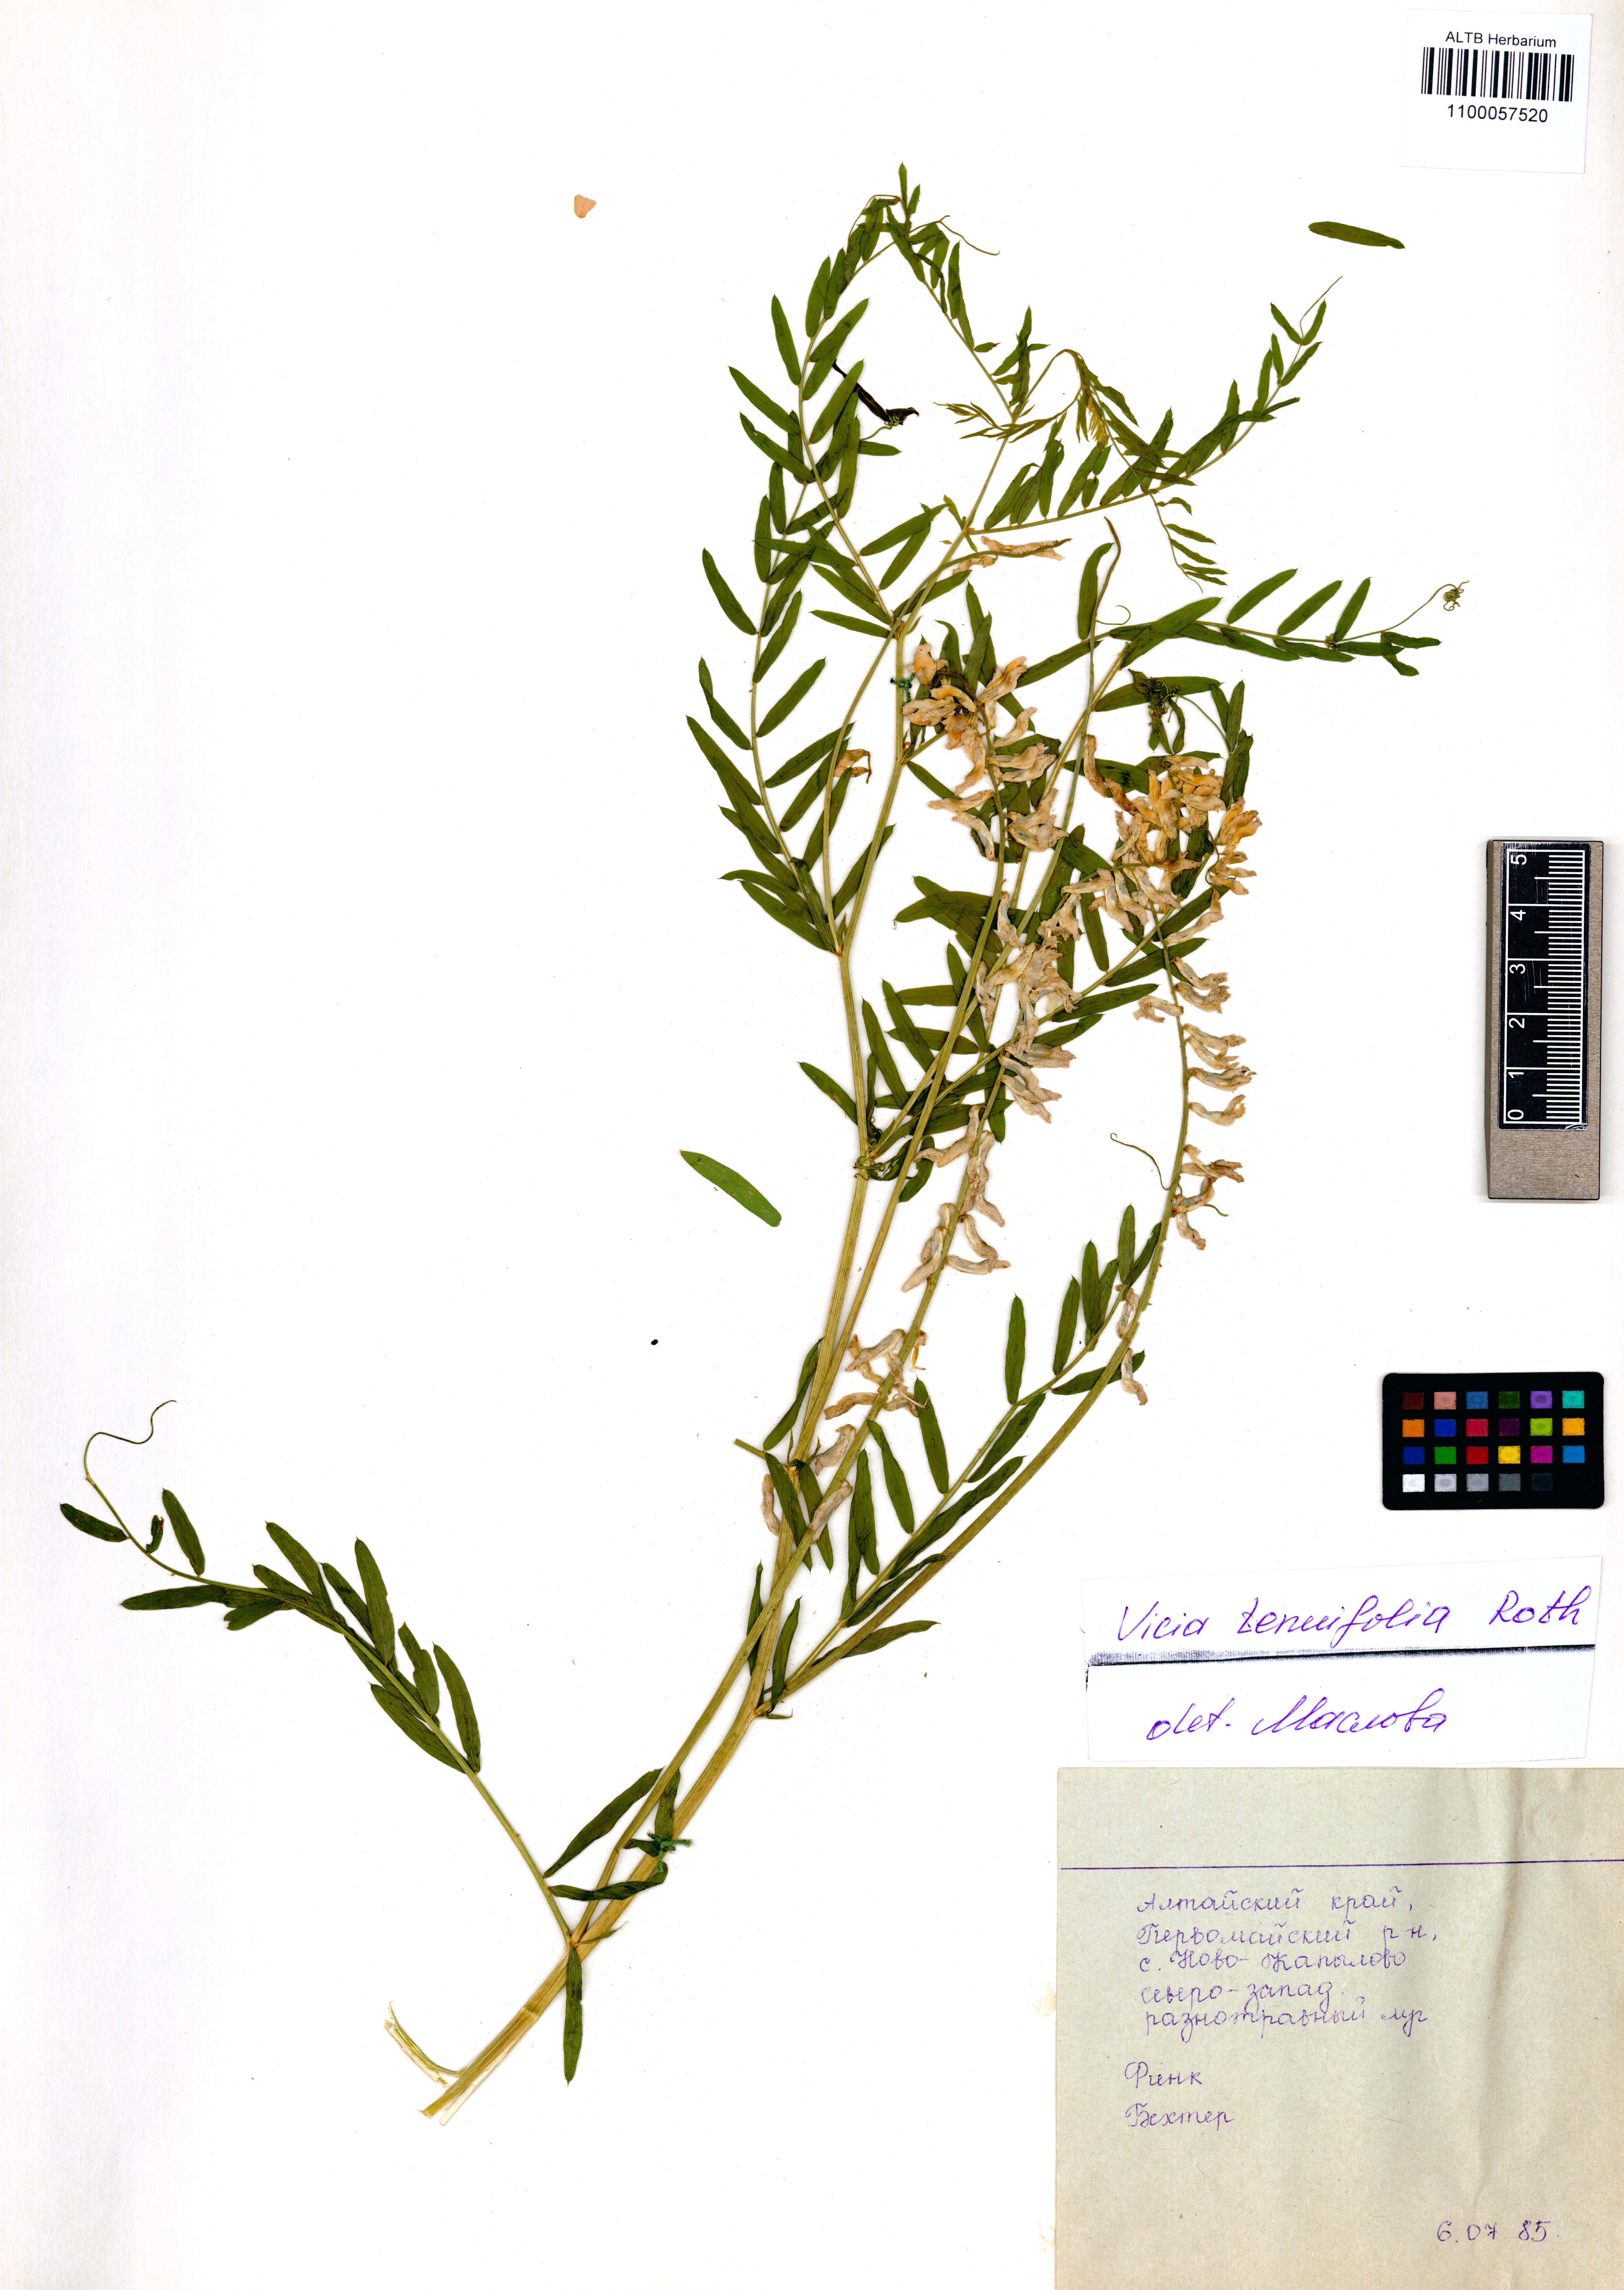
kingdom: Plantae
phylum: Tracheophyta
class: Magnoliopsida
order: Fabales
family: Fabaceae
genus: Vicia
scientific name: Vicia tenuifolia
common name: Fine-leaved vetch
